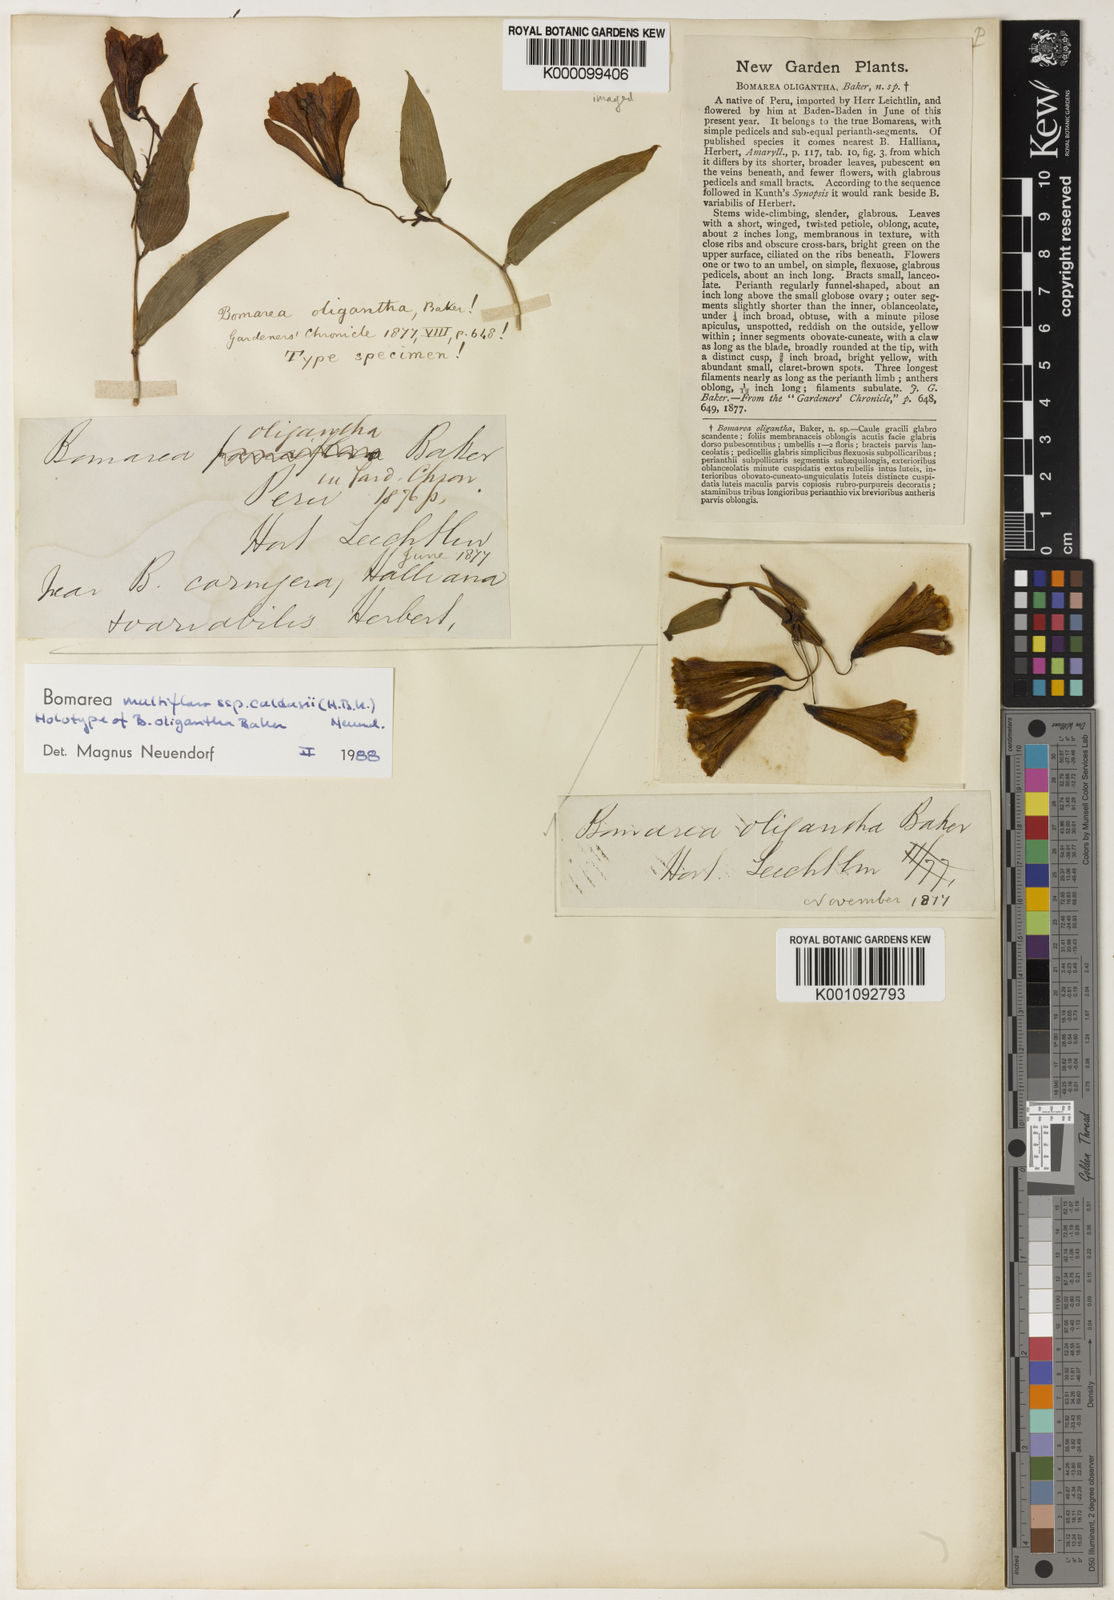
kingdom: Plantae
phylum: Tracheophyta
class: Liliopsida
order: Liliales
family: Alstroemeriaceae
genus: Bomarea
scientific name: Bomarea multiflora
